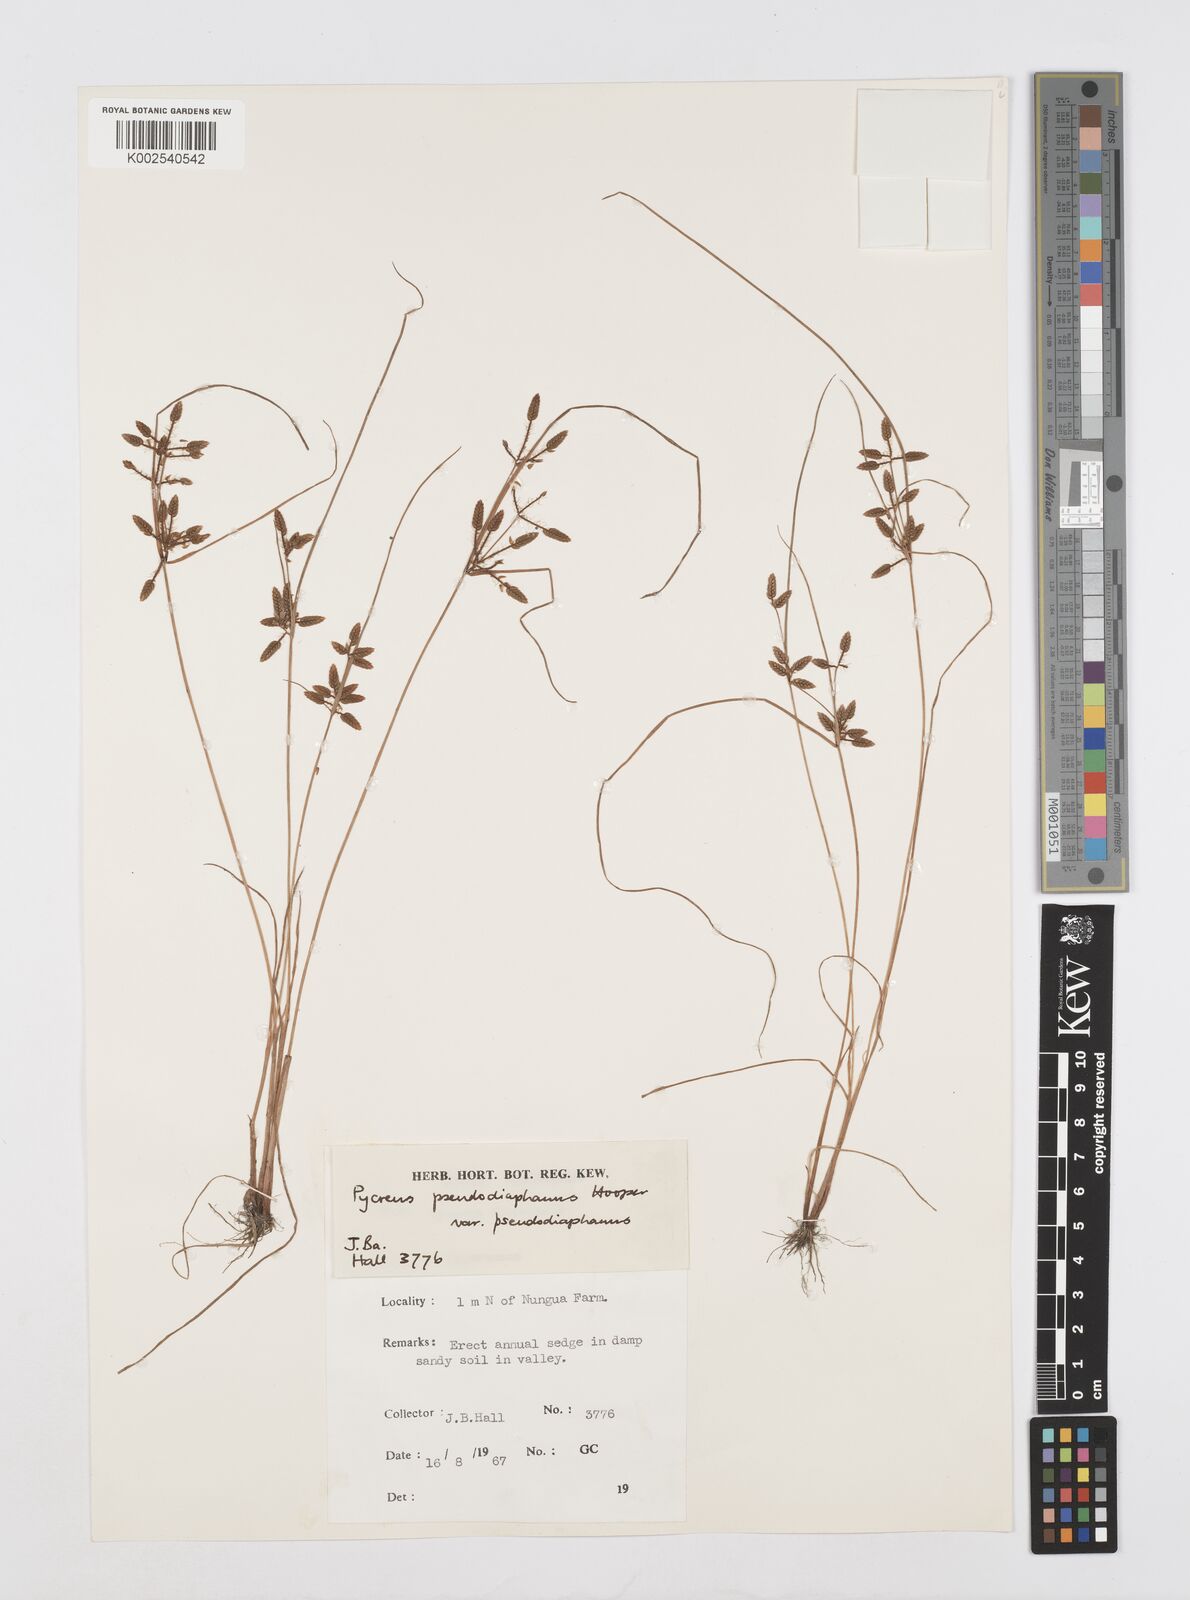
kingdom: Plantae
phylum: Tracheophyta
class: Liliopsida
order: Poales
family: Cyperaceae
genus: Cyperus
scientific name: Cyperus pseudodiaphanus
